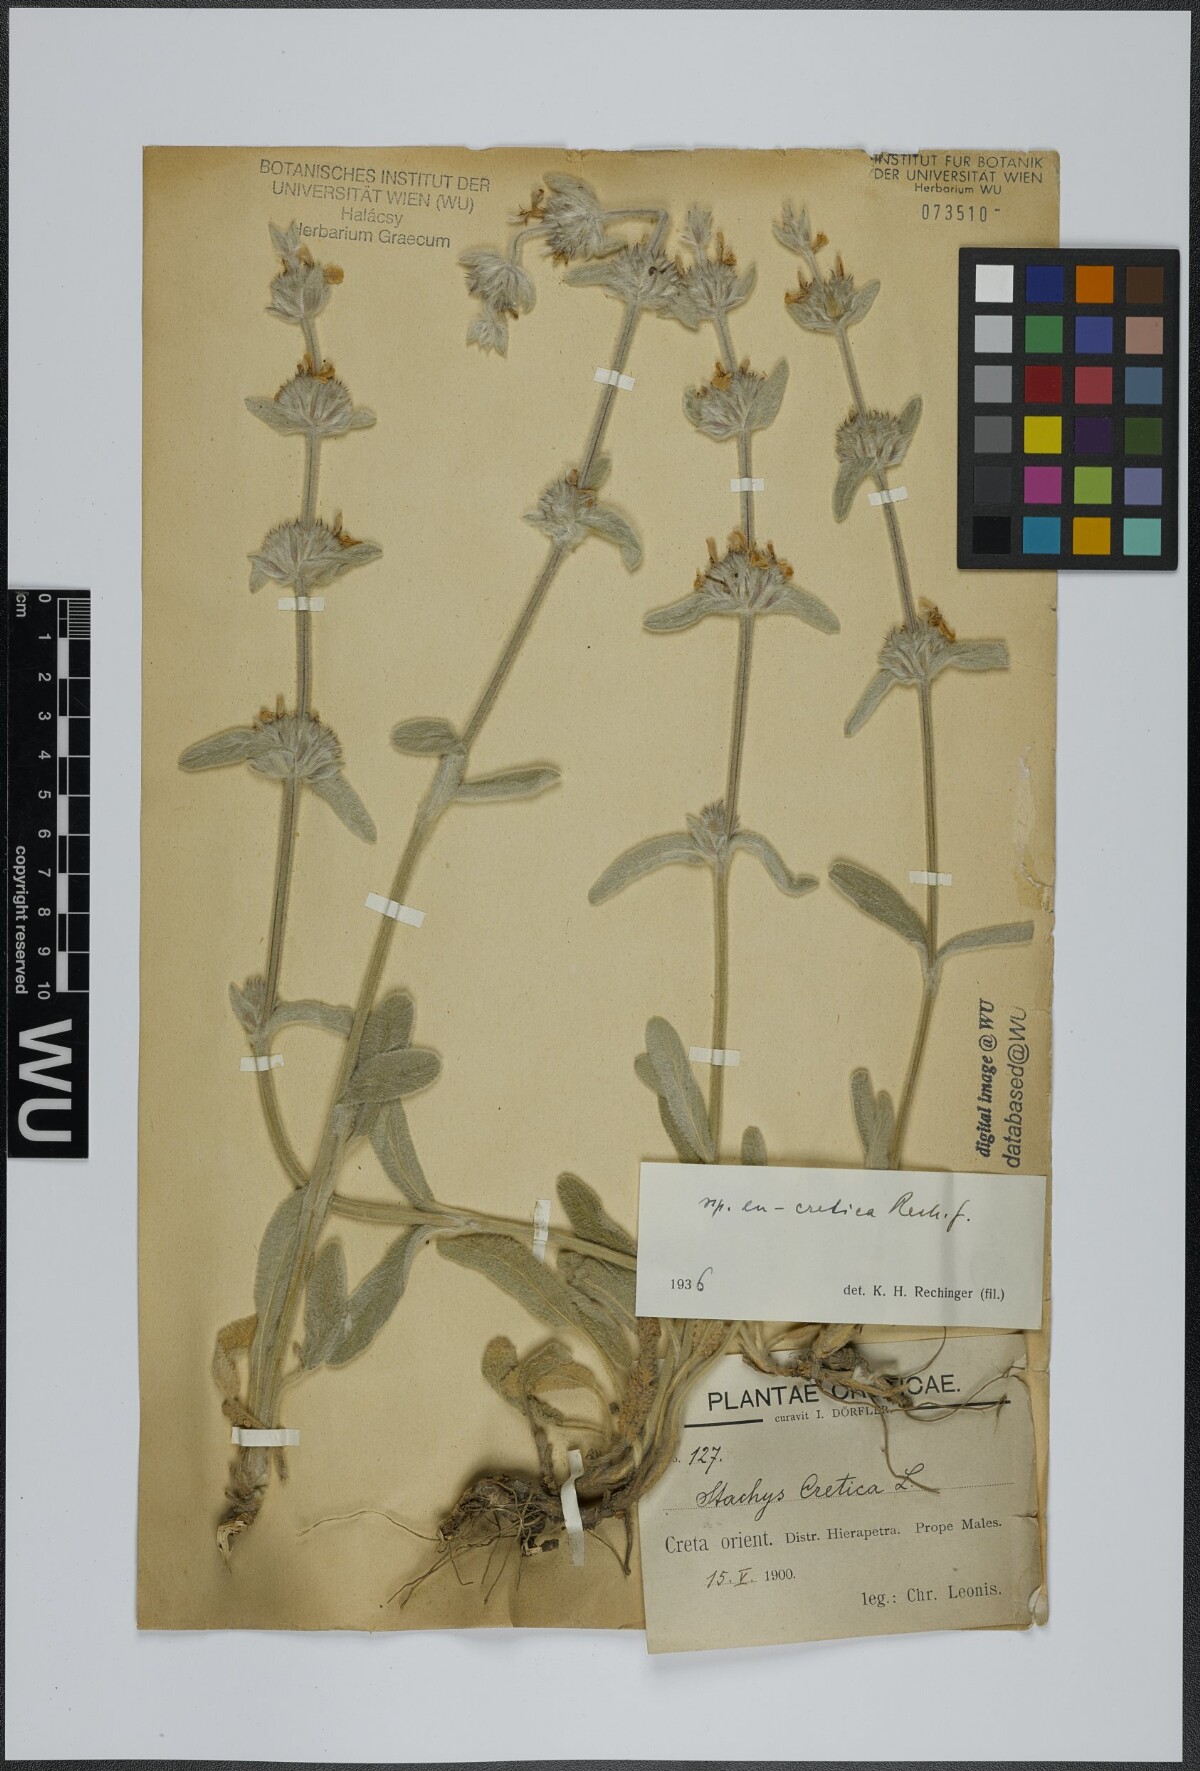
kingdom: Plantae
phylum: Tracheophyta
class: Magnoliopsida
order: Lamiales
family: Lamiaceae
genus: Stachys
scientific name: Stachys cretica
